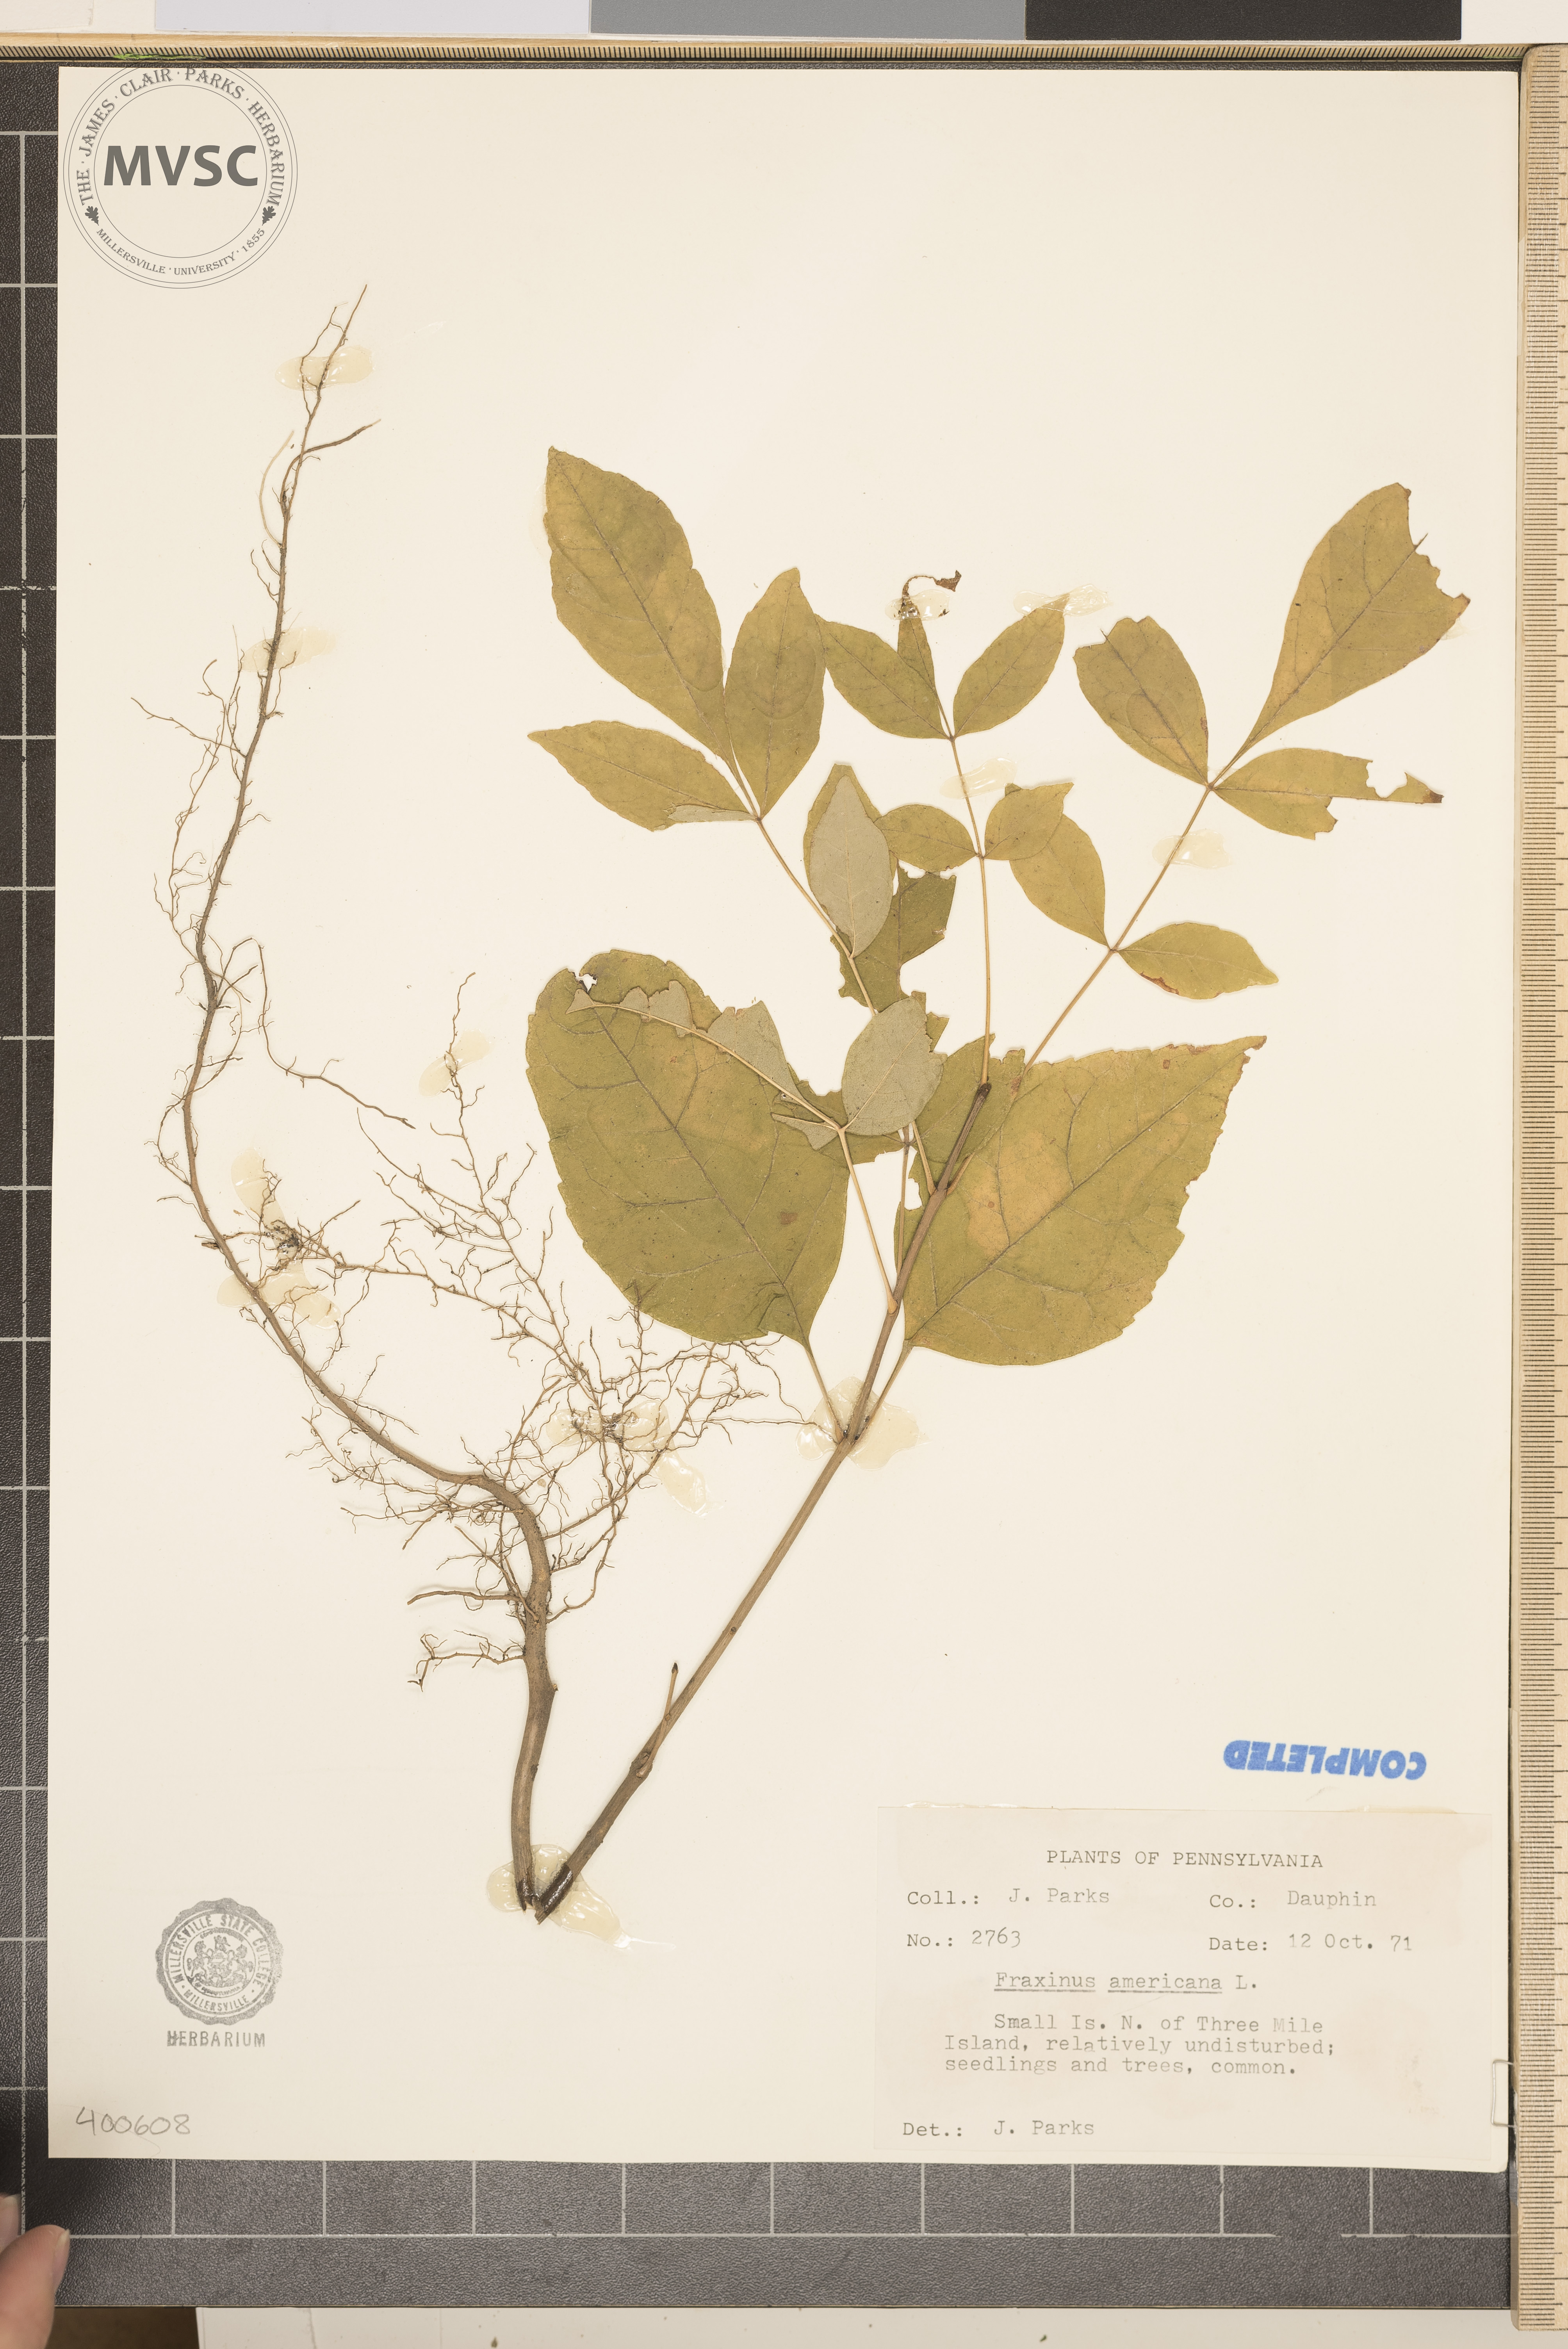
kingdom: Plantae
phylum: Tracheophyta
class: Magnoliopsida
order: Lamiales
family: Oleaceae
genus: Fraxinus
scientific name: Fraxinus americana
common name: ash
